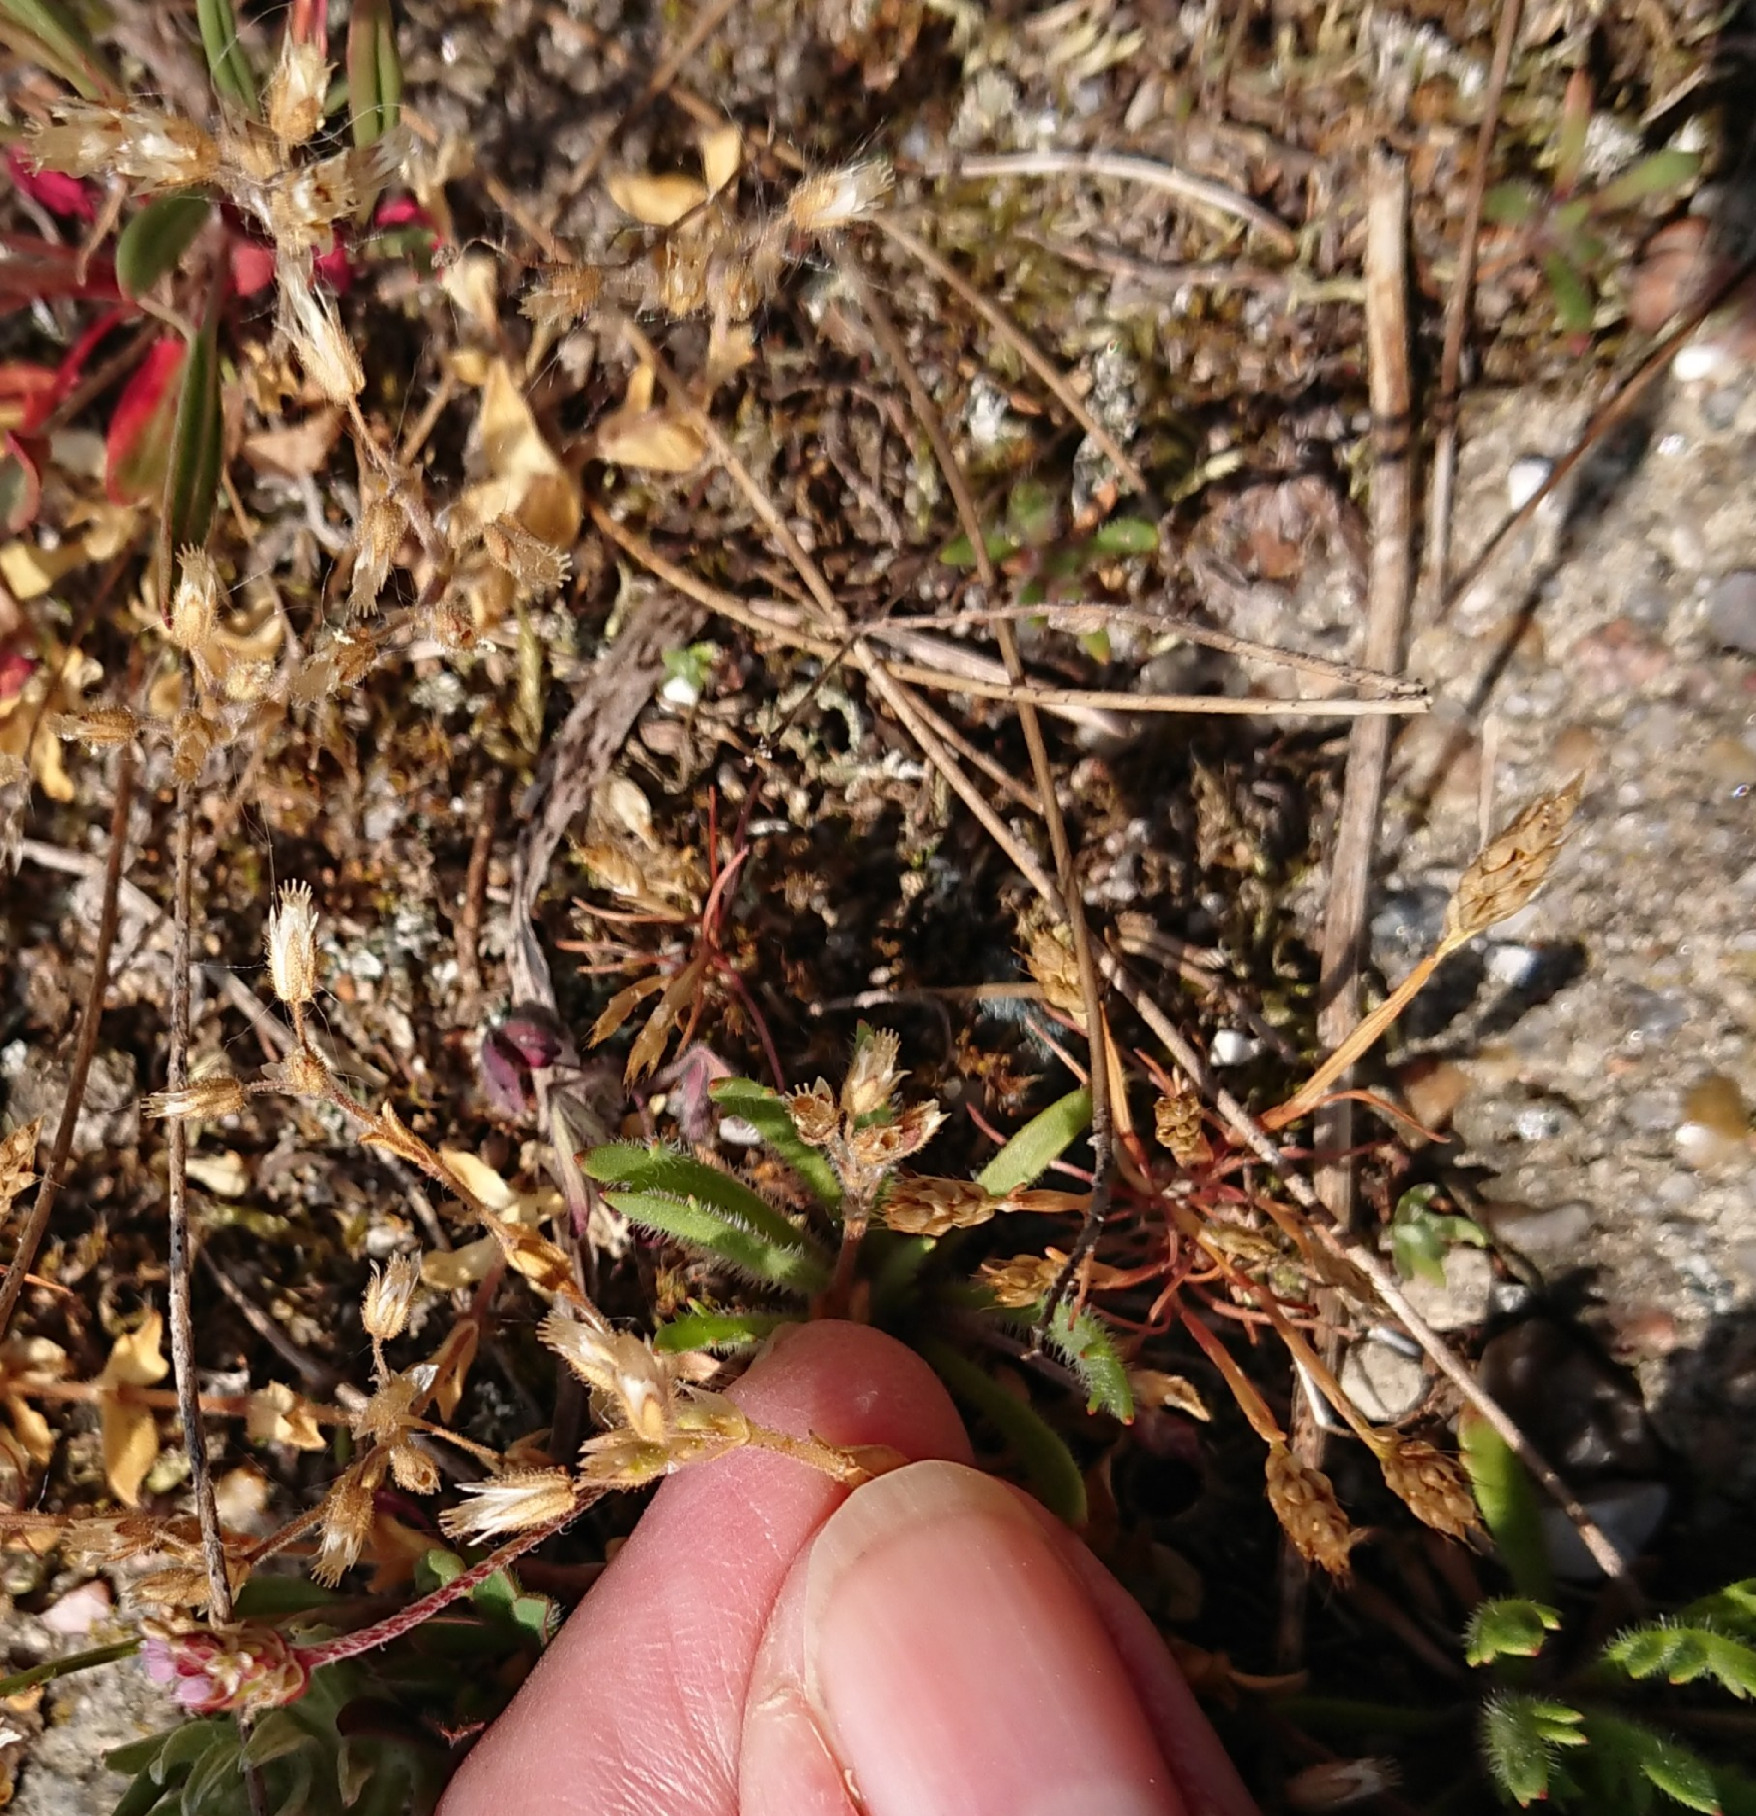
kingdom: Plantae
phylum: Tracheophyta
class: Magnoliopsida
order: Caryophyllales
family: Caryophyllaceae
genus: Cerastium
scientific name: Cerastium semidecandrum
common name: Femhannet hønsetarm
